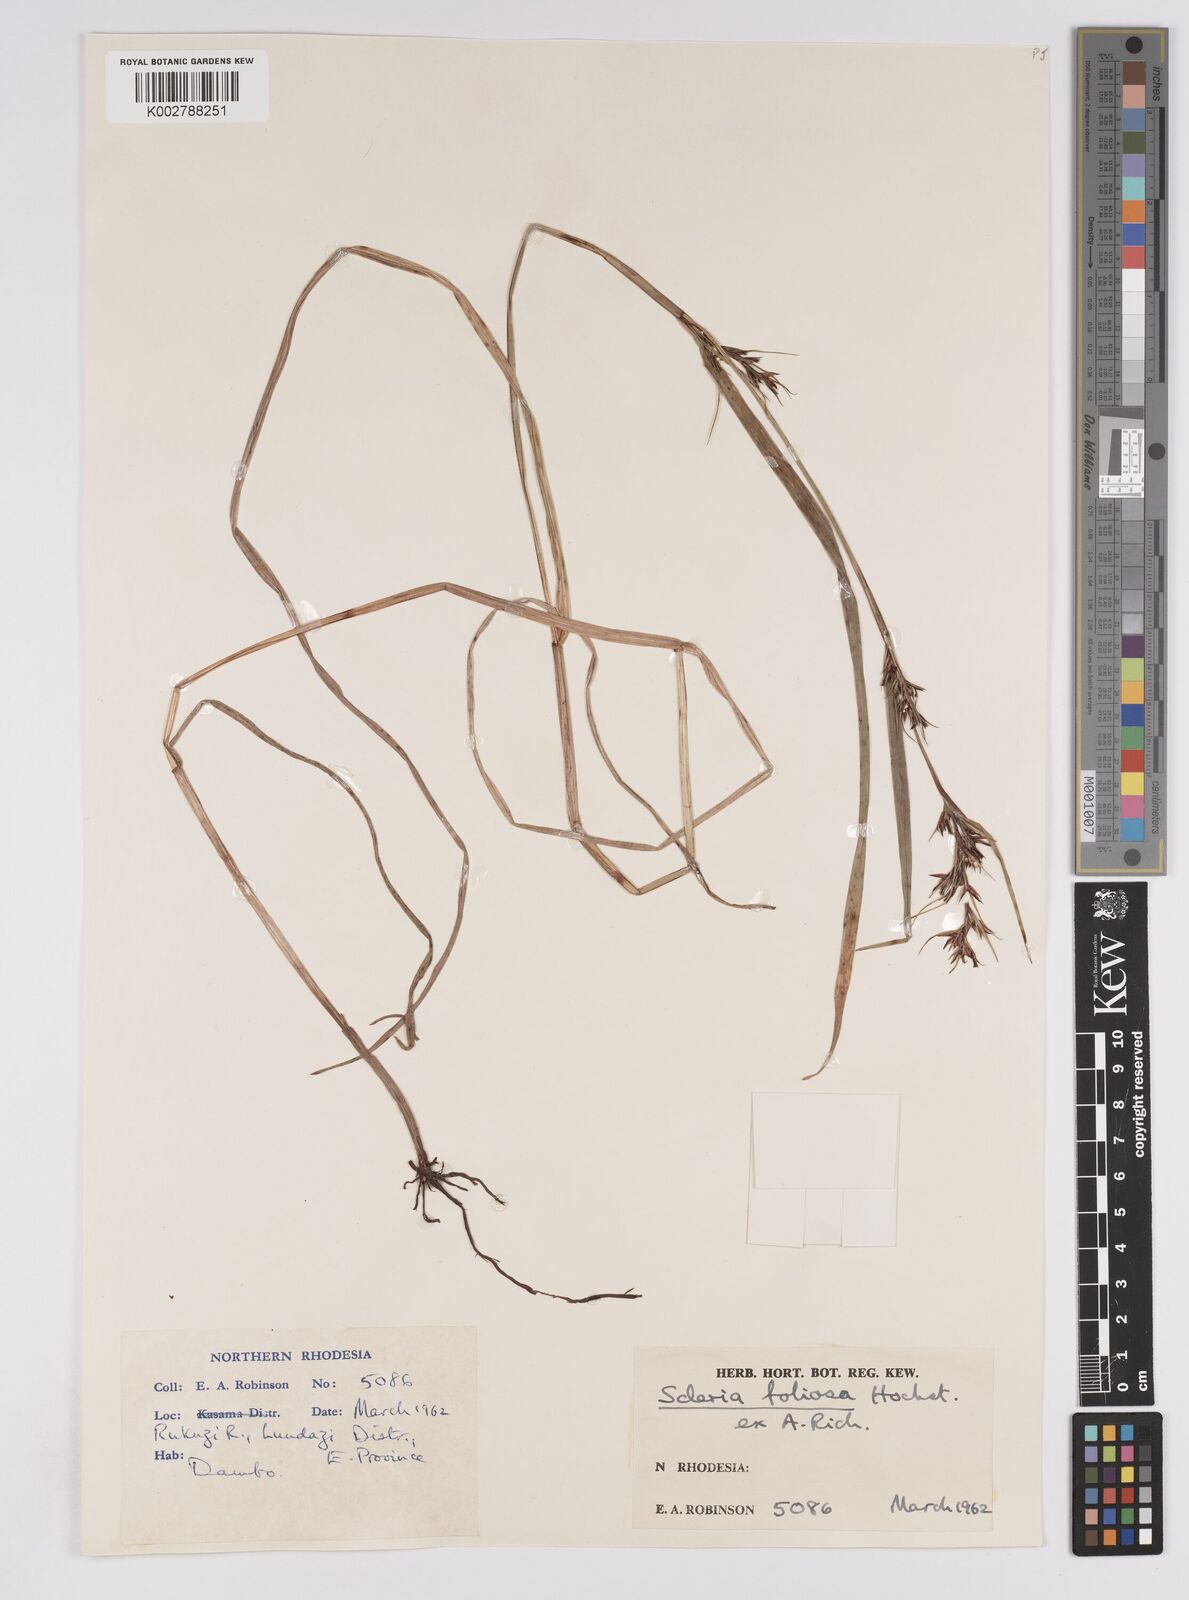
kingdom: Plantae
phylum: Tracheophyta
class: Liliopsida
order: Poales
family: Cyperaceae
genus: Scleria
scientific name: Scleria foliosa
